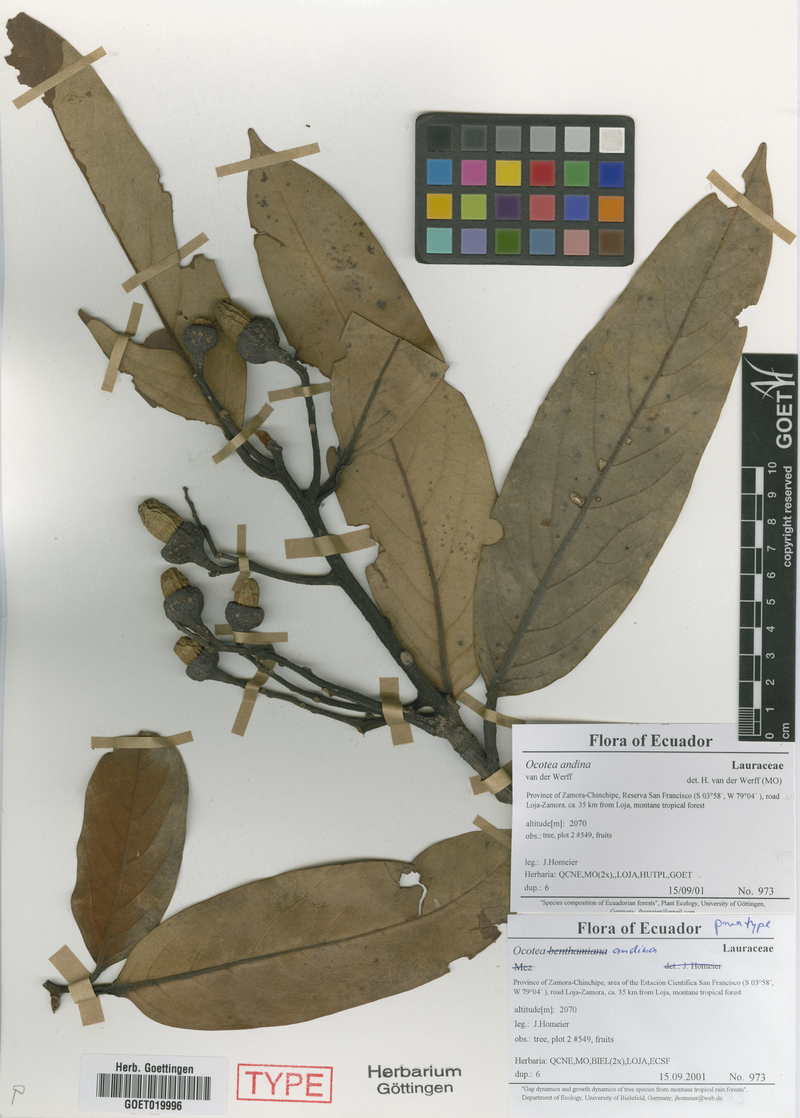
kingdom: Plantae
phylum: Tracheophyta
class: Magnoliopsida
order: Laurales
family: Lauraceae
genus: Ocotea
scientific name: Ocotea andina
